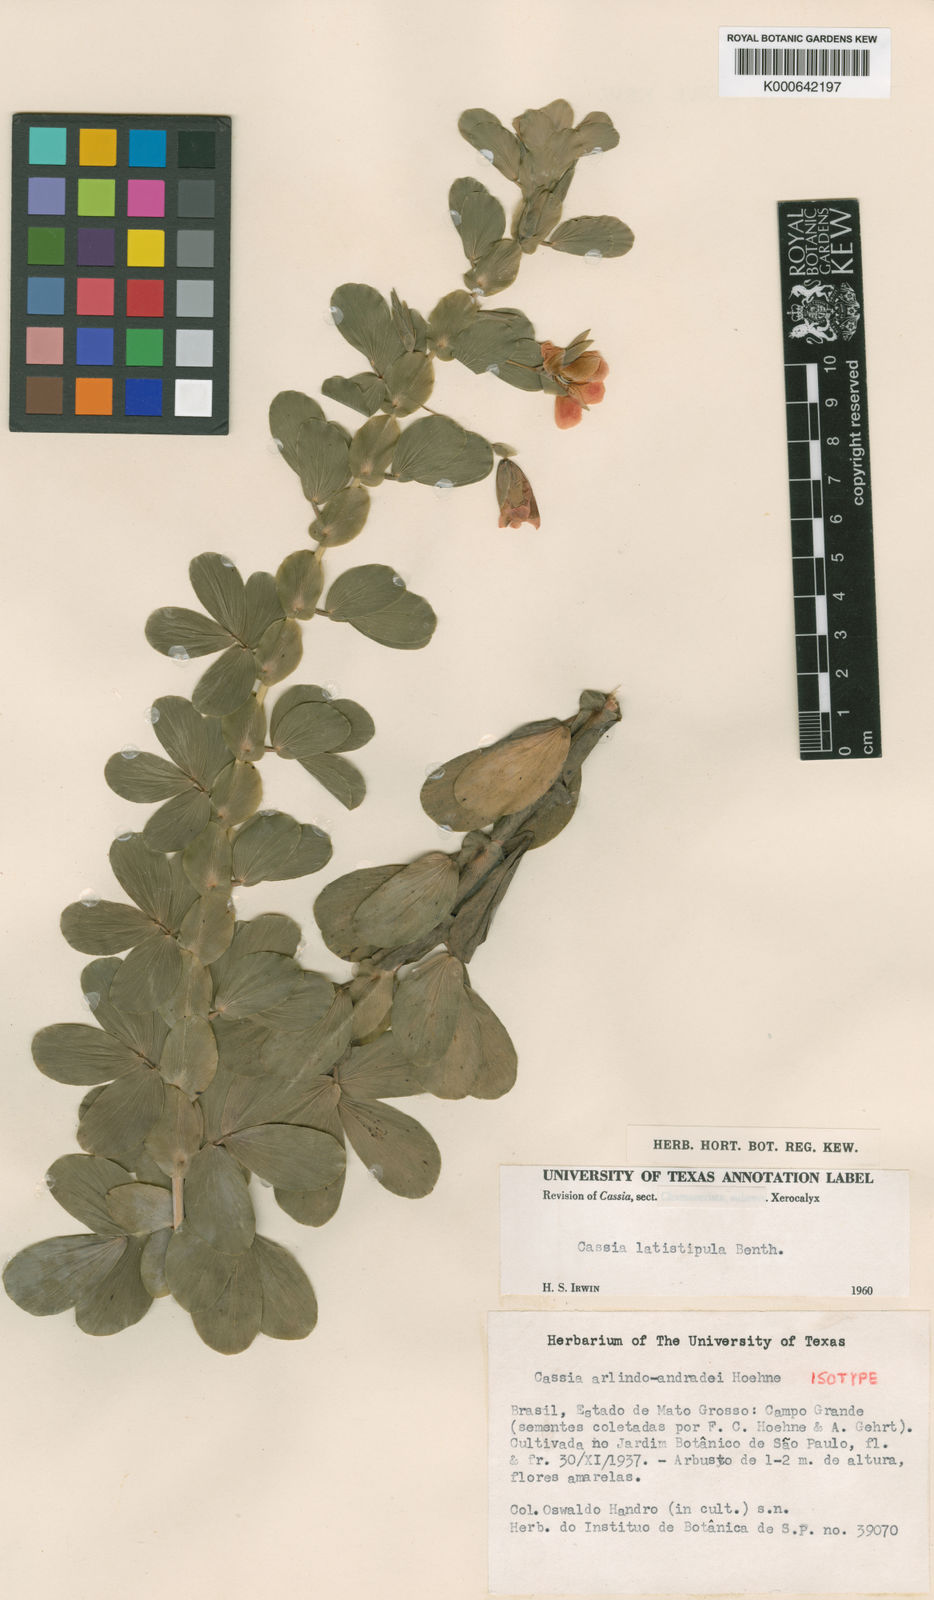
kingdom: Plantae
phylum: Tracheophyta
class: Magnoliopsida
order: Fabales
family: Fabaceae
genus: Chamaecrista
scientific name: Chamaecrista desvauxii
